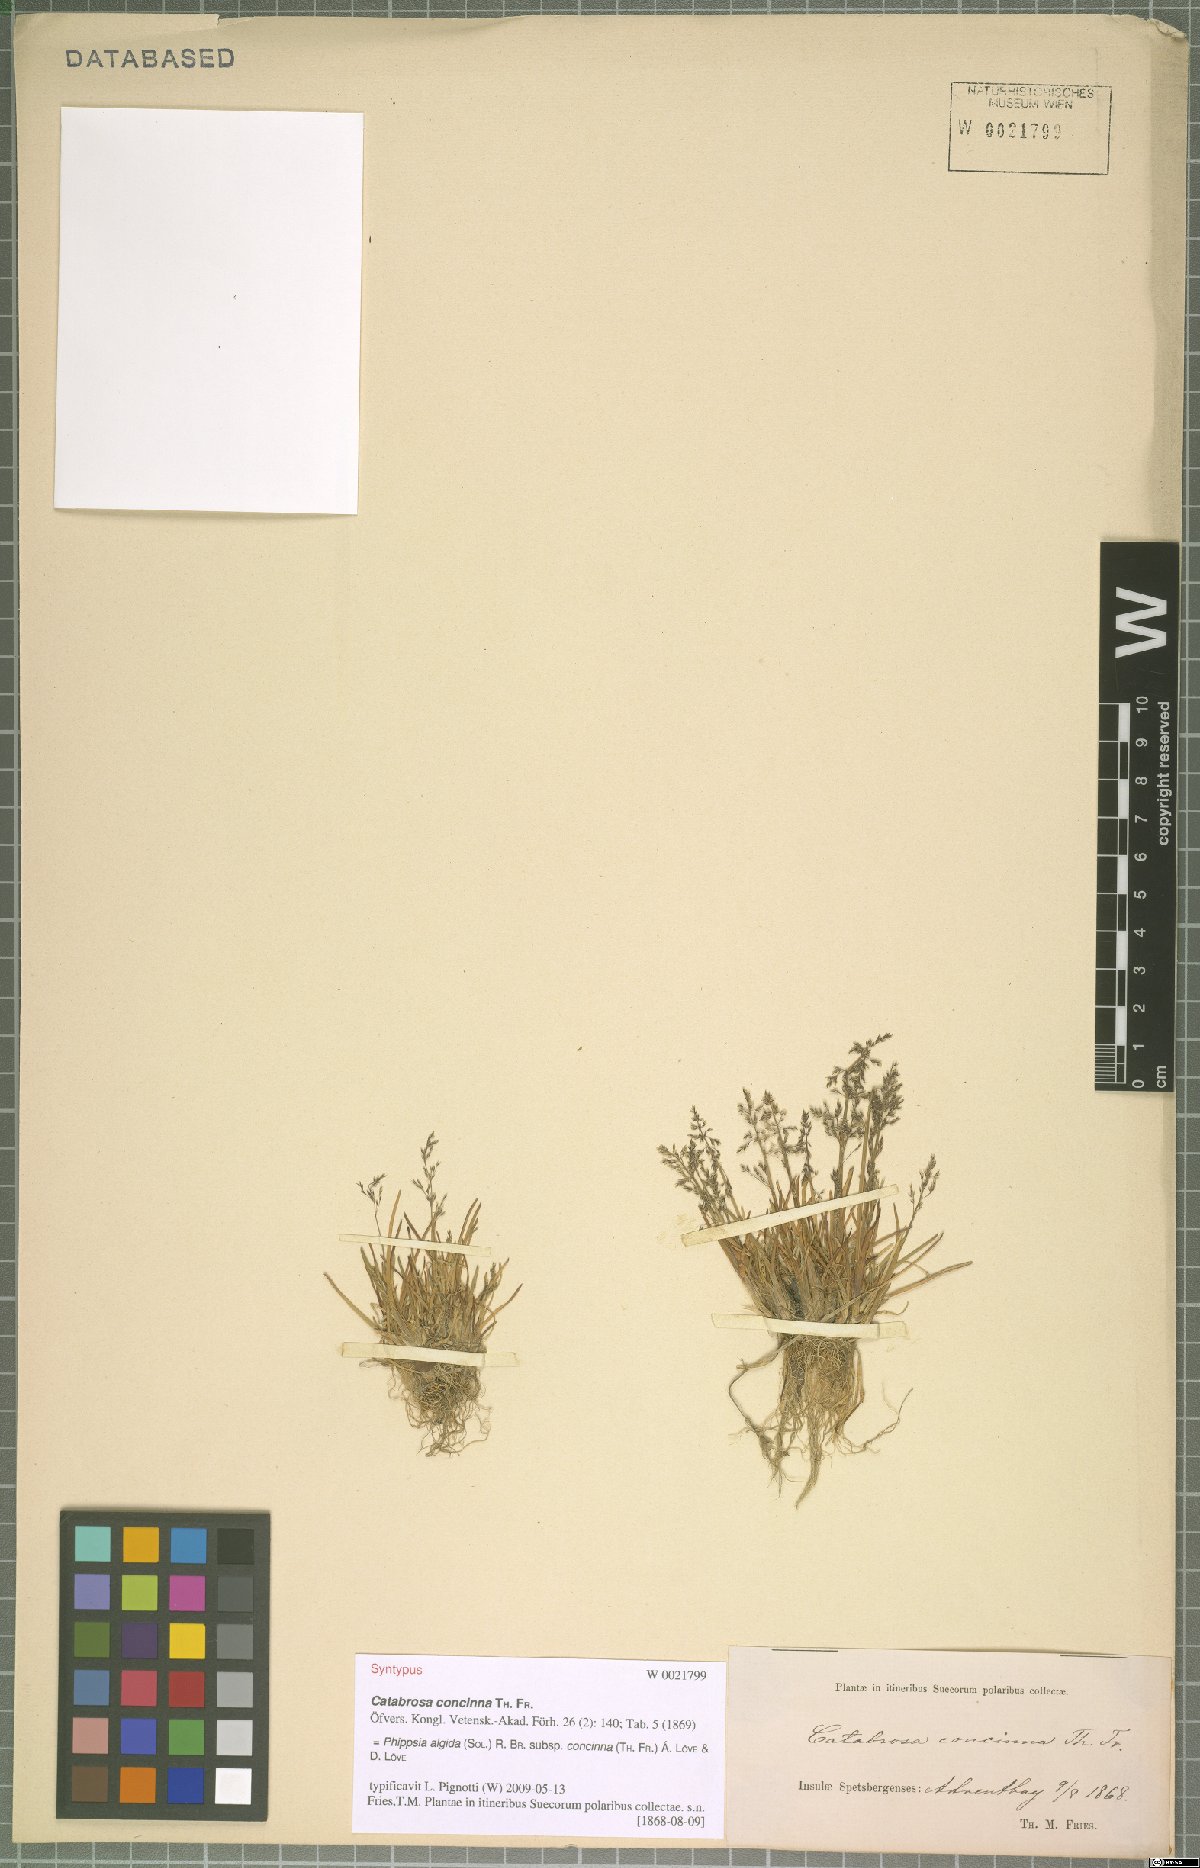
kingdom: Plantae
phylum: Tracheophyta
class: Liliopsida
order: Poales
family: Poaceae
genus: Phippsia
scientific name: Phippsia concinna
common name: Snowgrass
